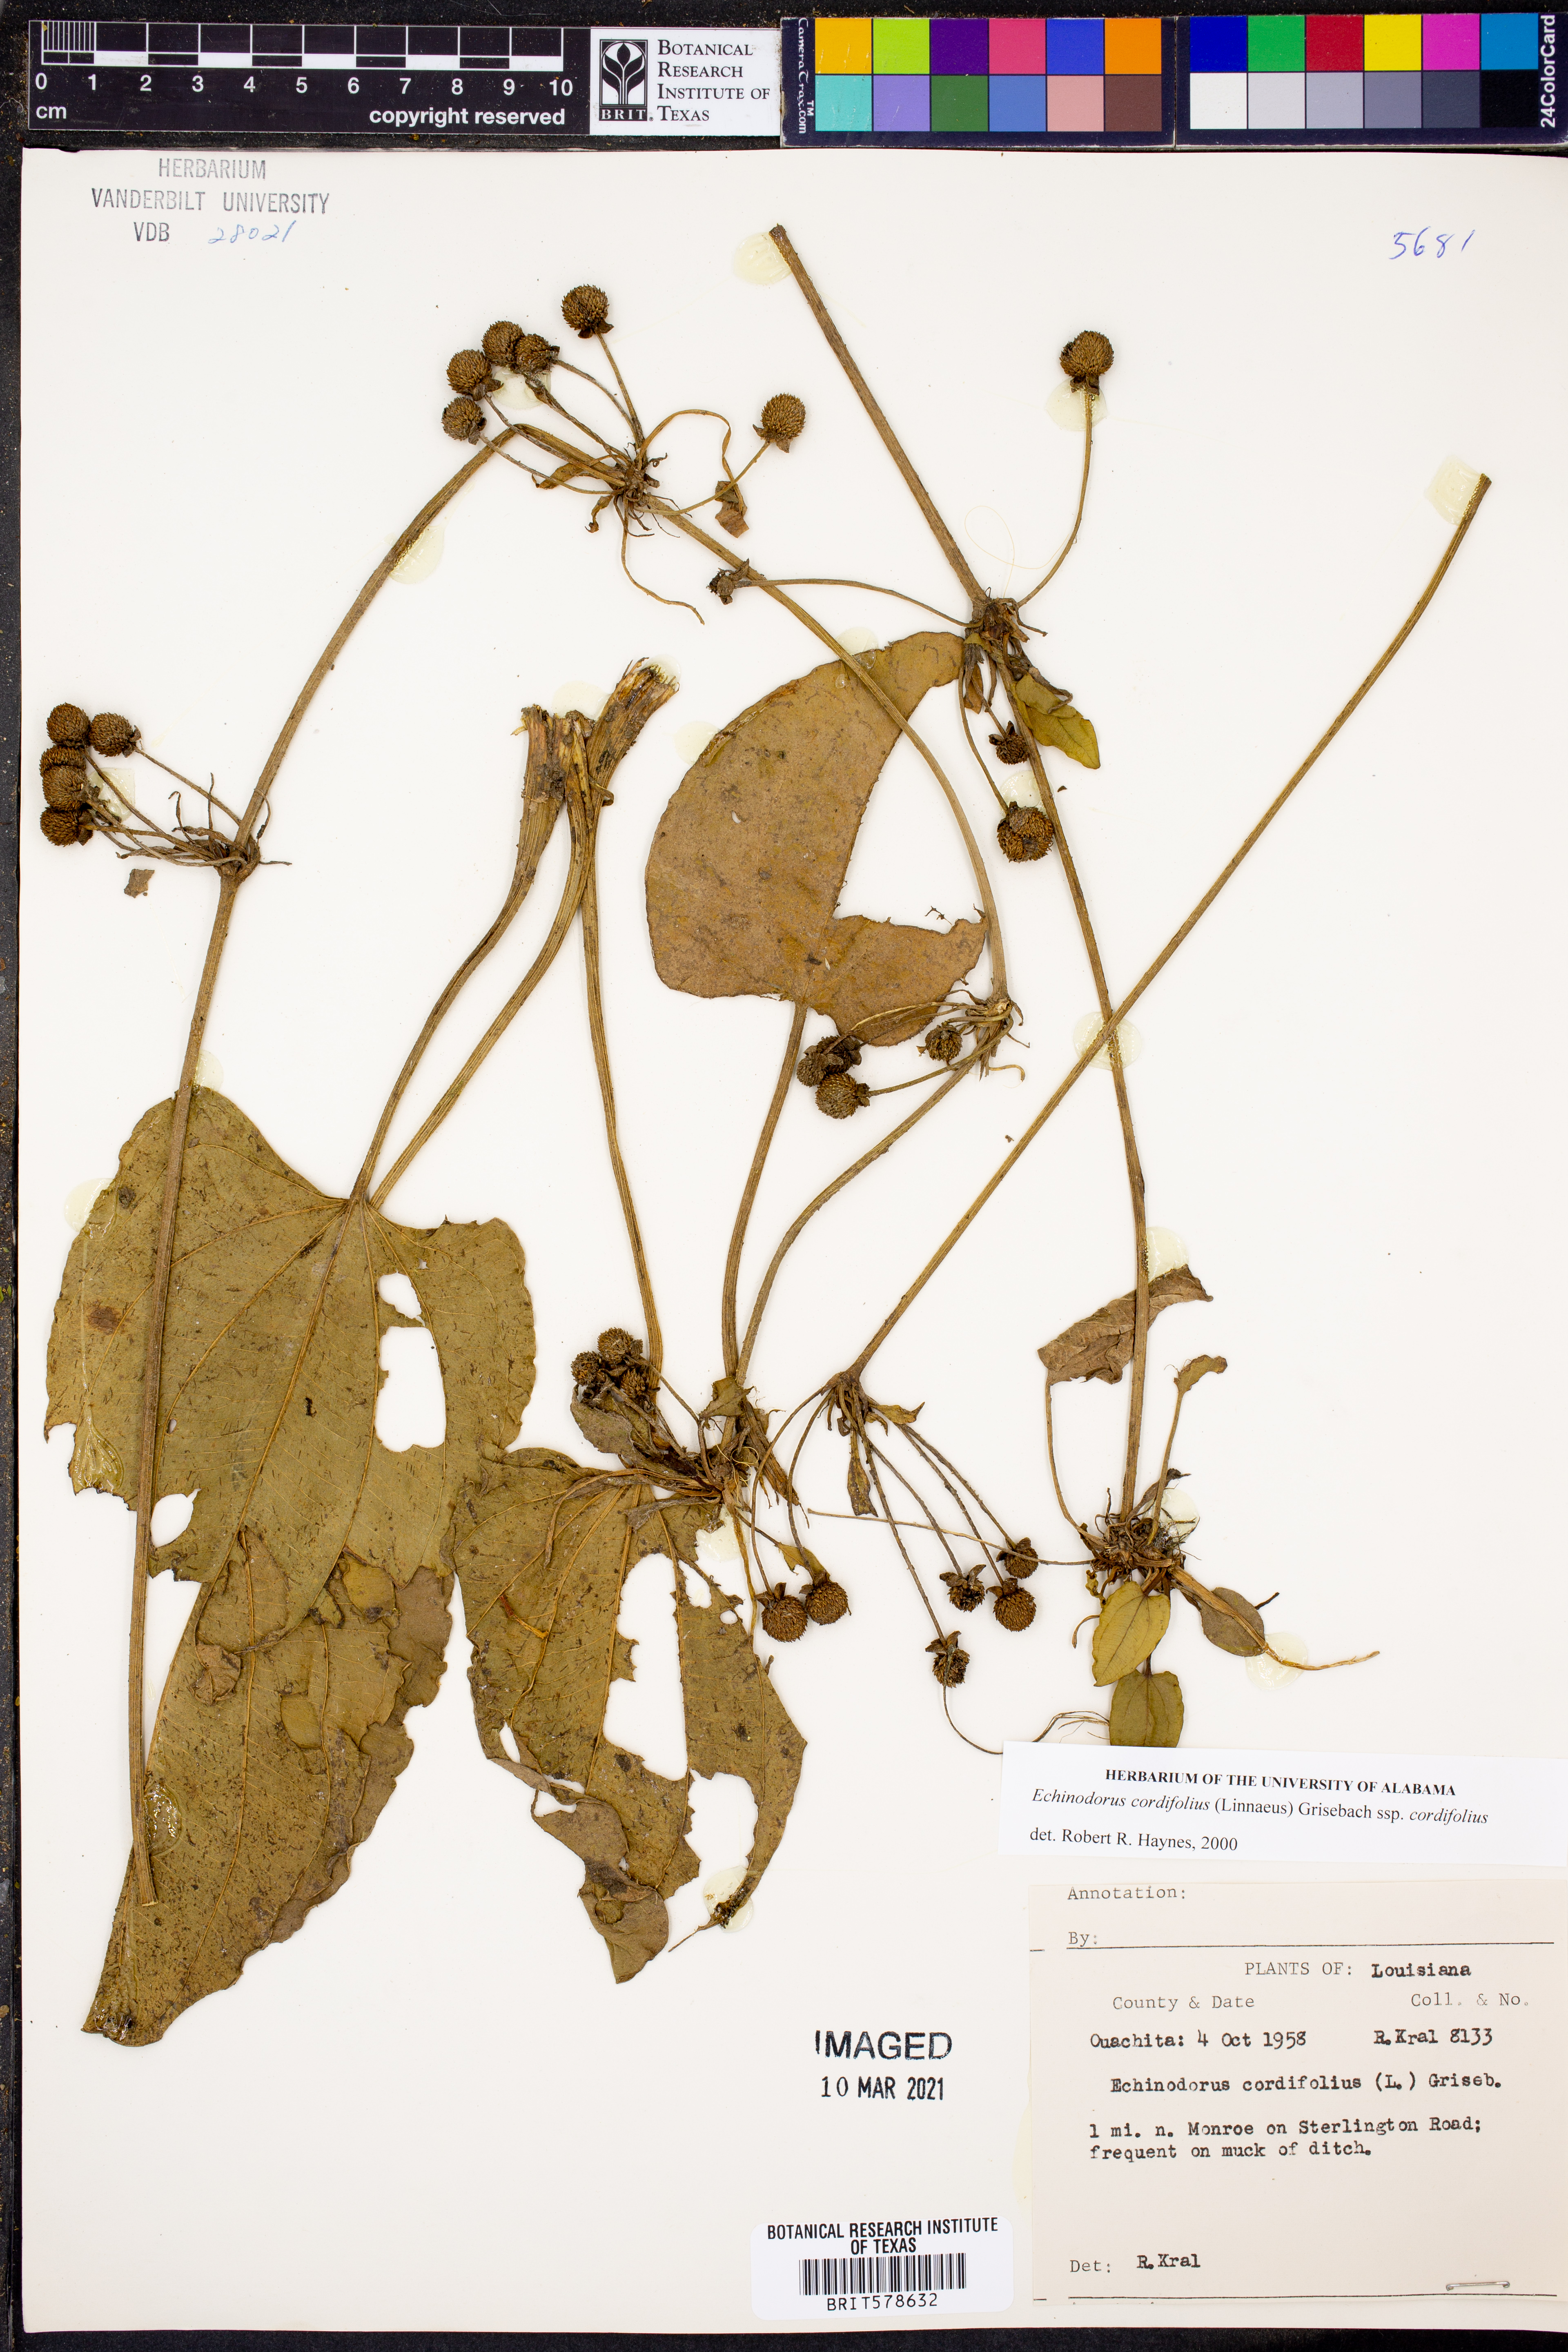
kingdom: Plantae
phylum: Tracheophyta
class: Liliopsida
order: Alismatales
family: Alismataceae
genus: Aquarius
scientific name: Aquarius cordifolius
